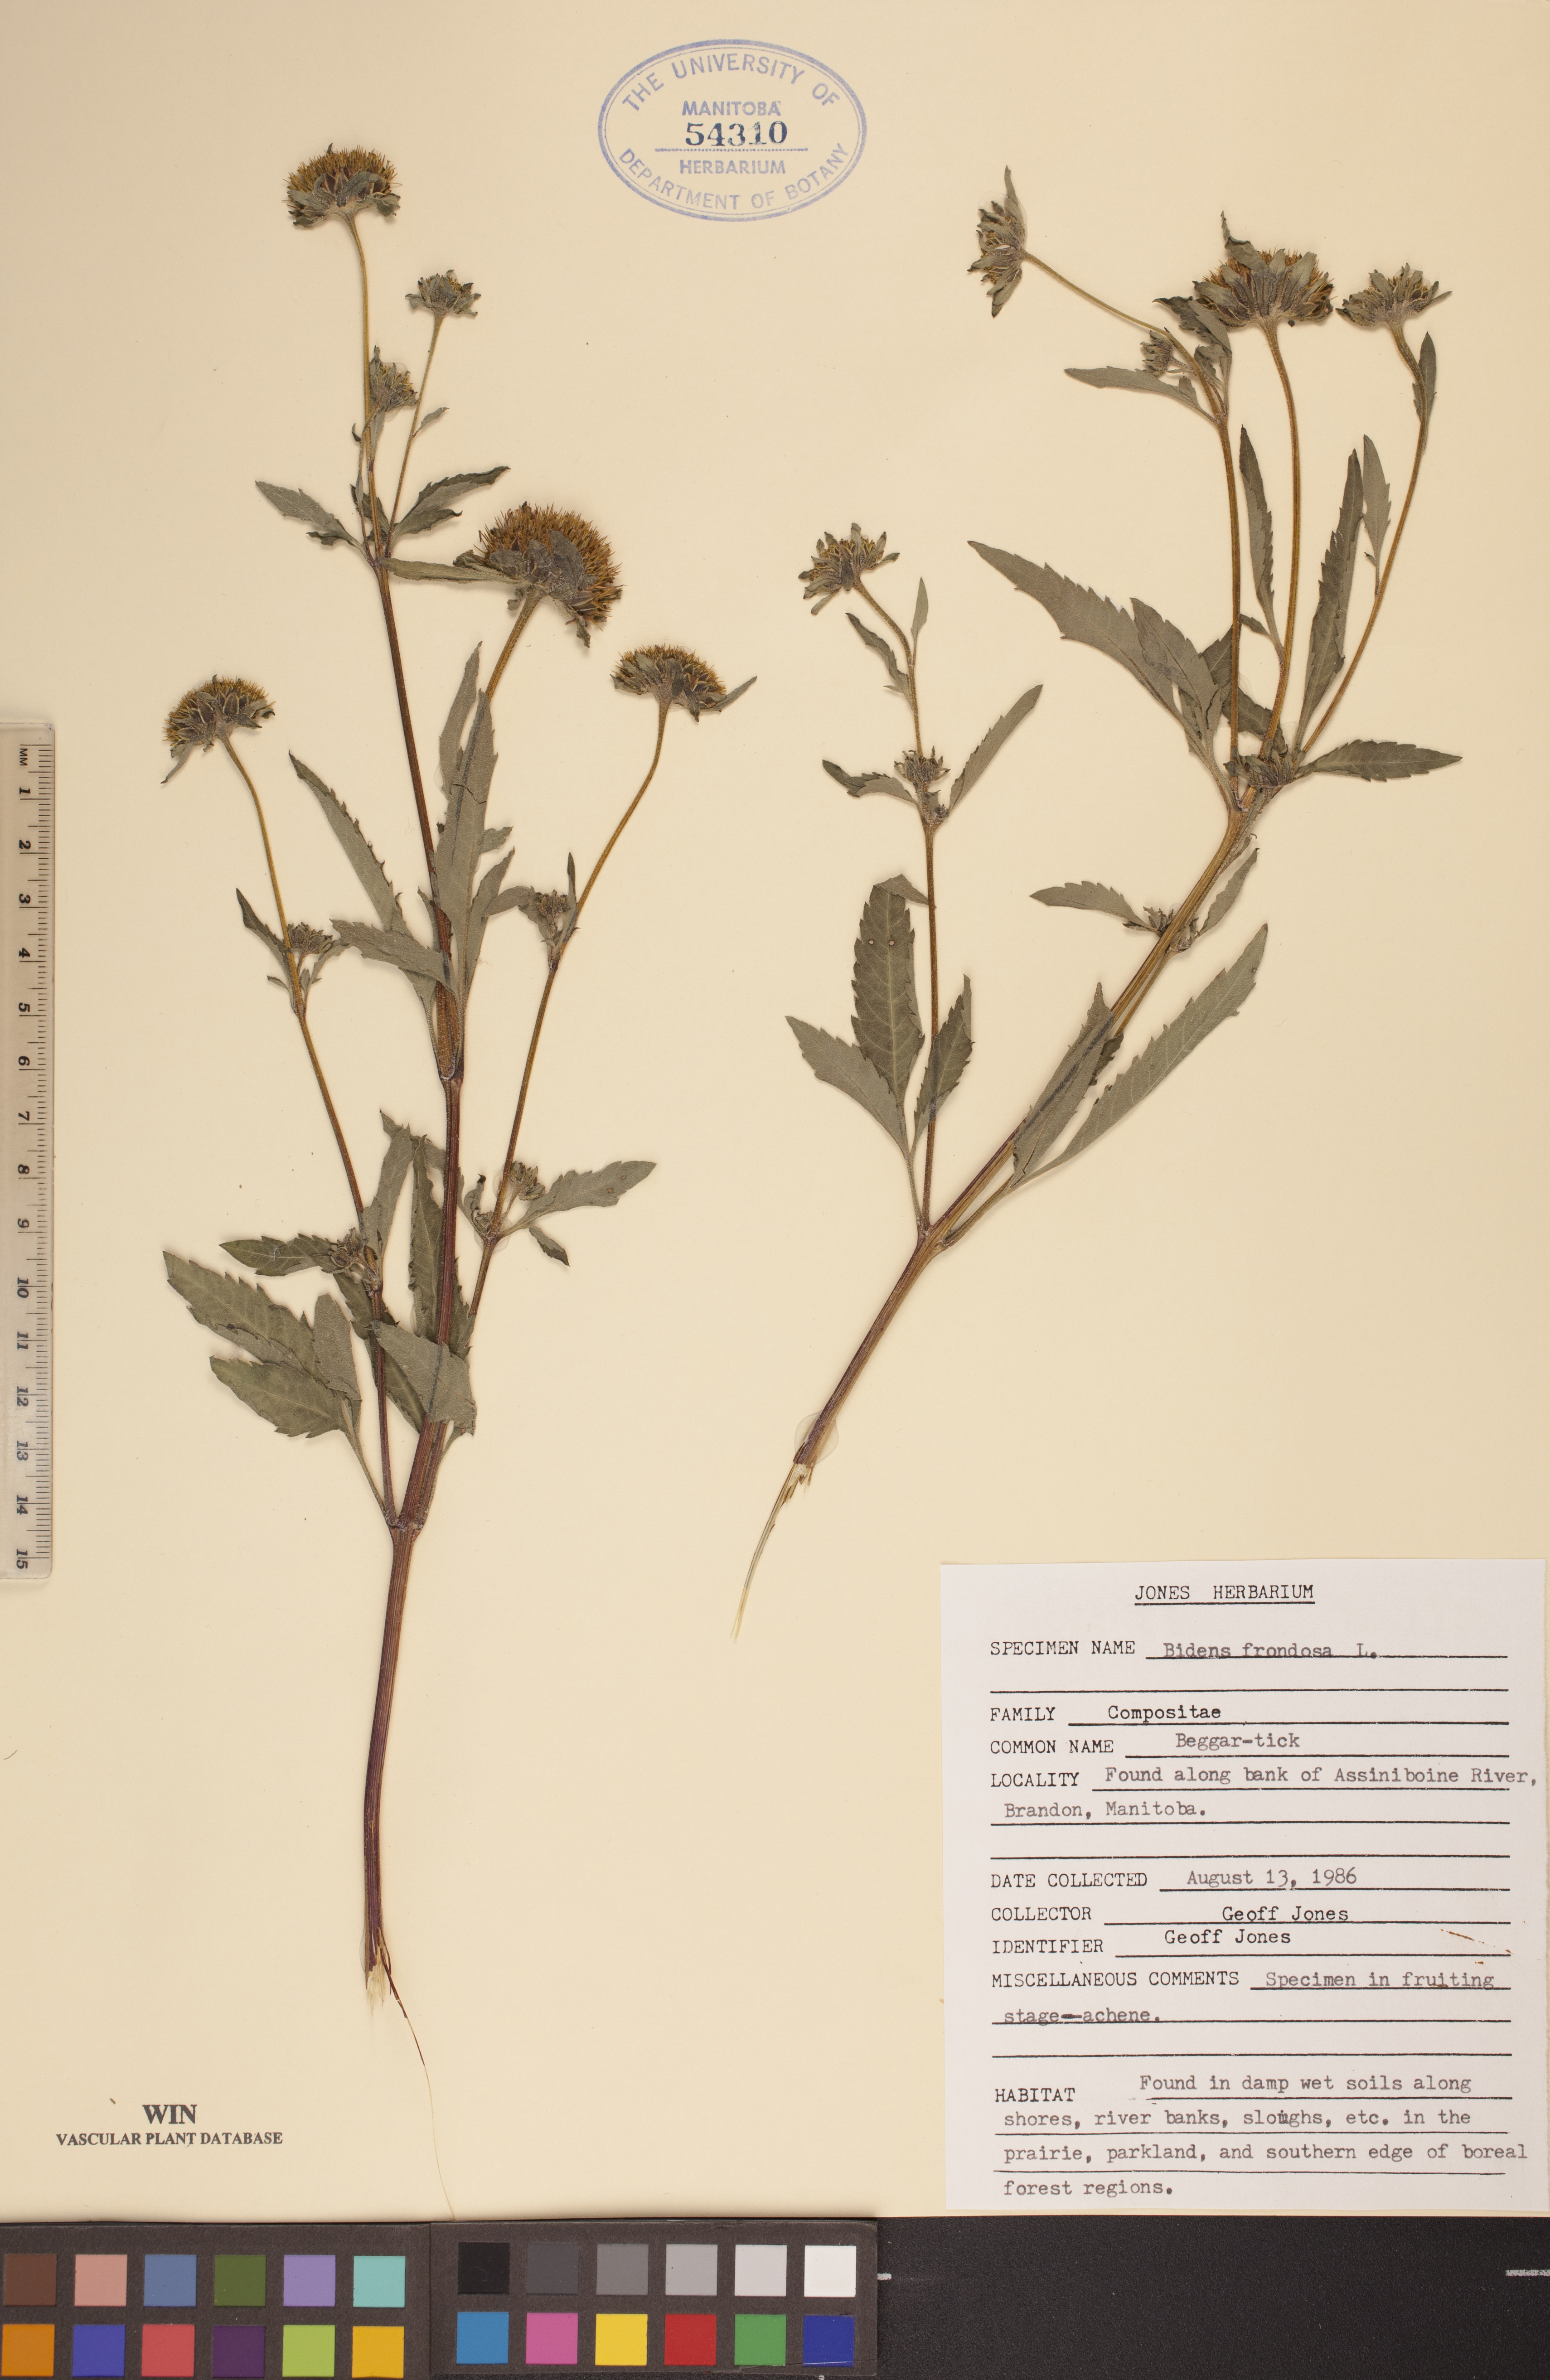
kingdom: Plantae
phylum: Tracheophyta
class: Magnoliopsida
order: Asterales
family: Asteraceae
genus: Bidens
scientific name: Bidens frondosa
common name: Beggarticks
